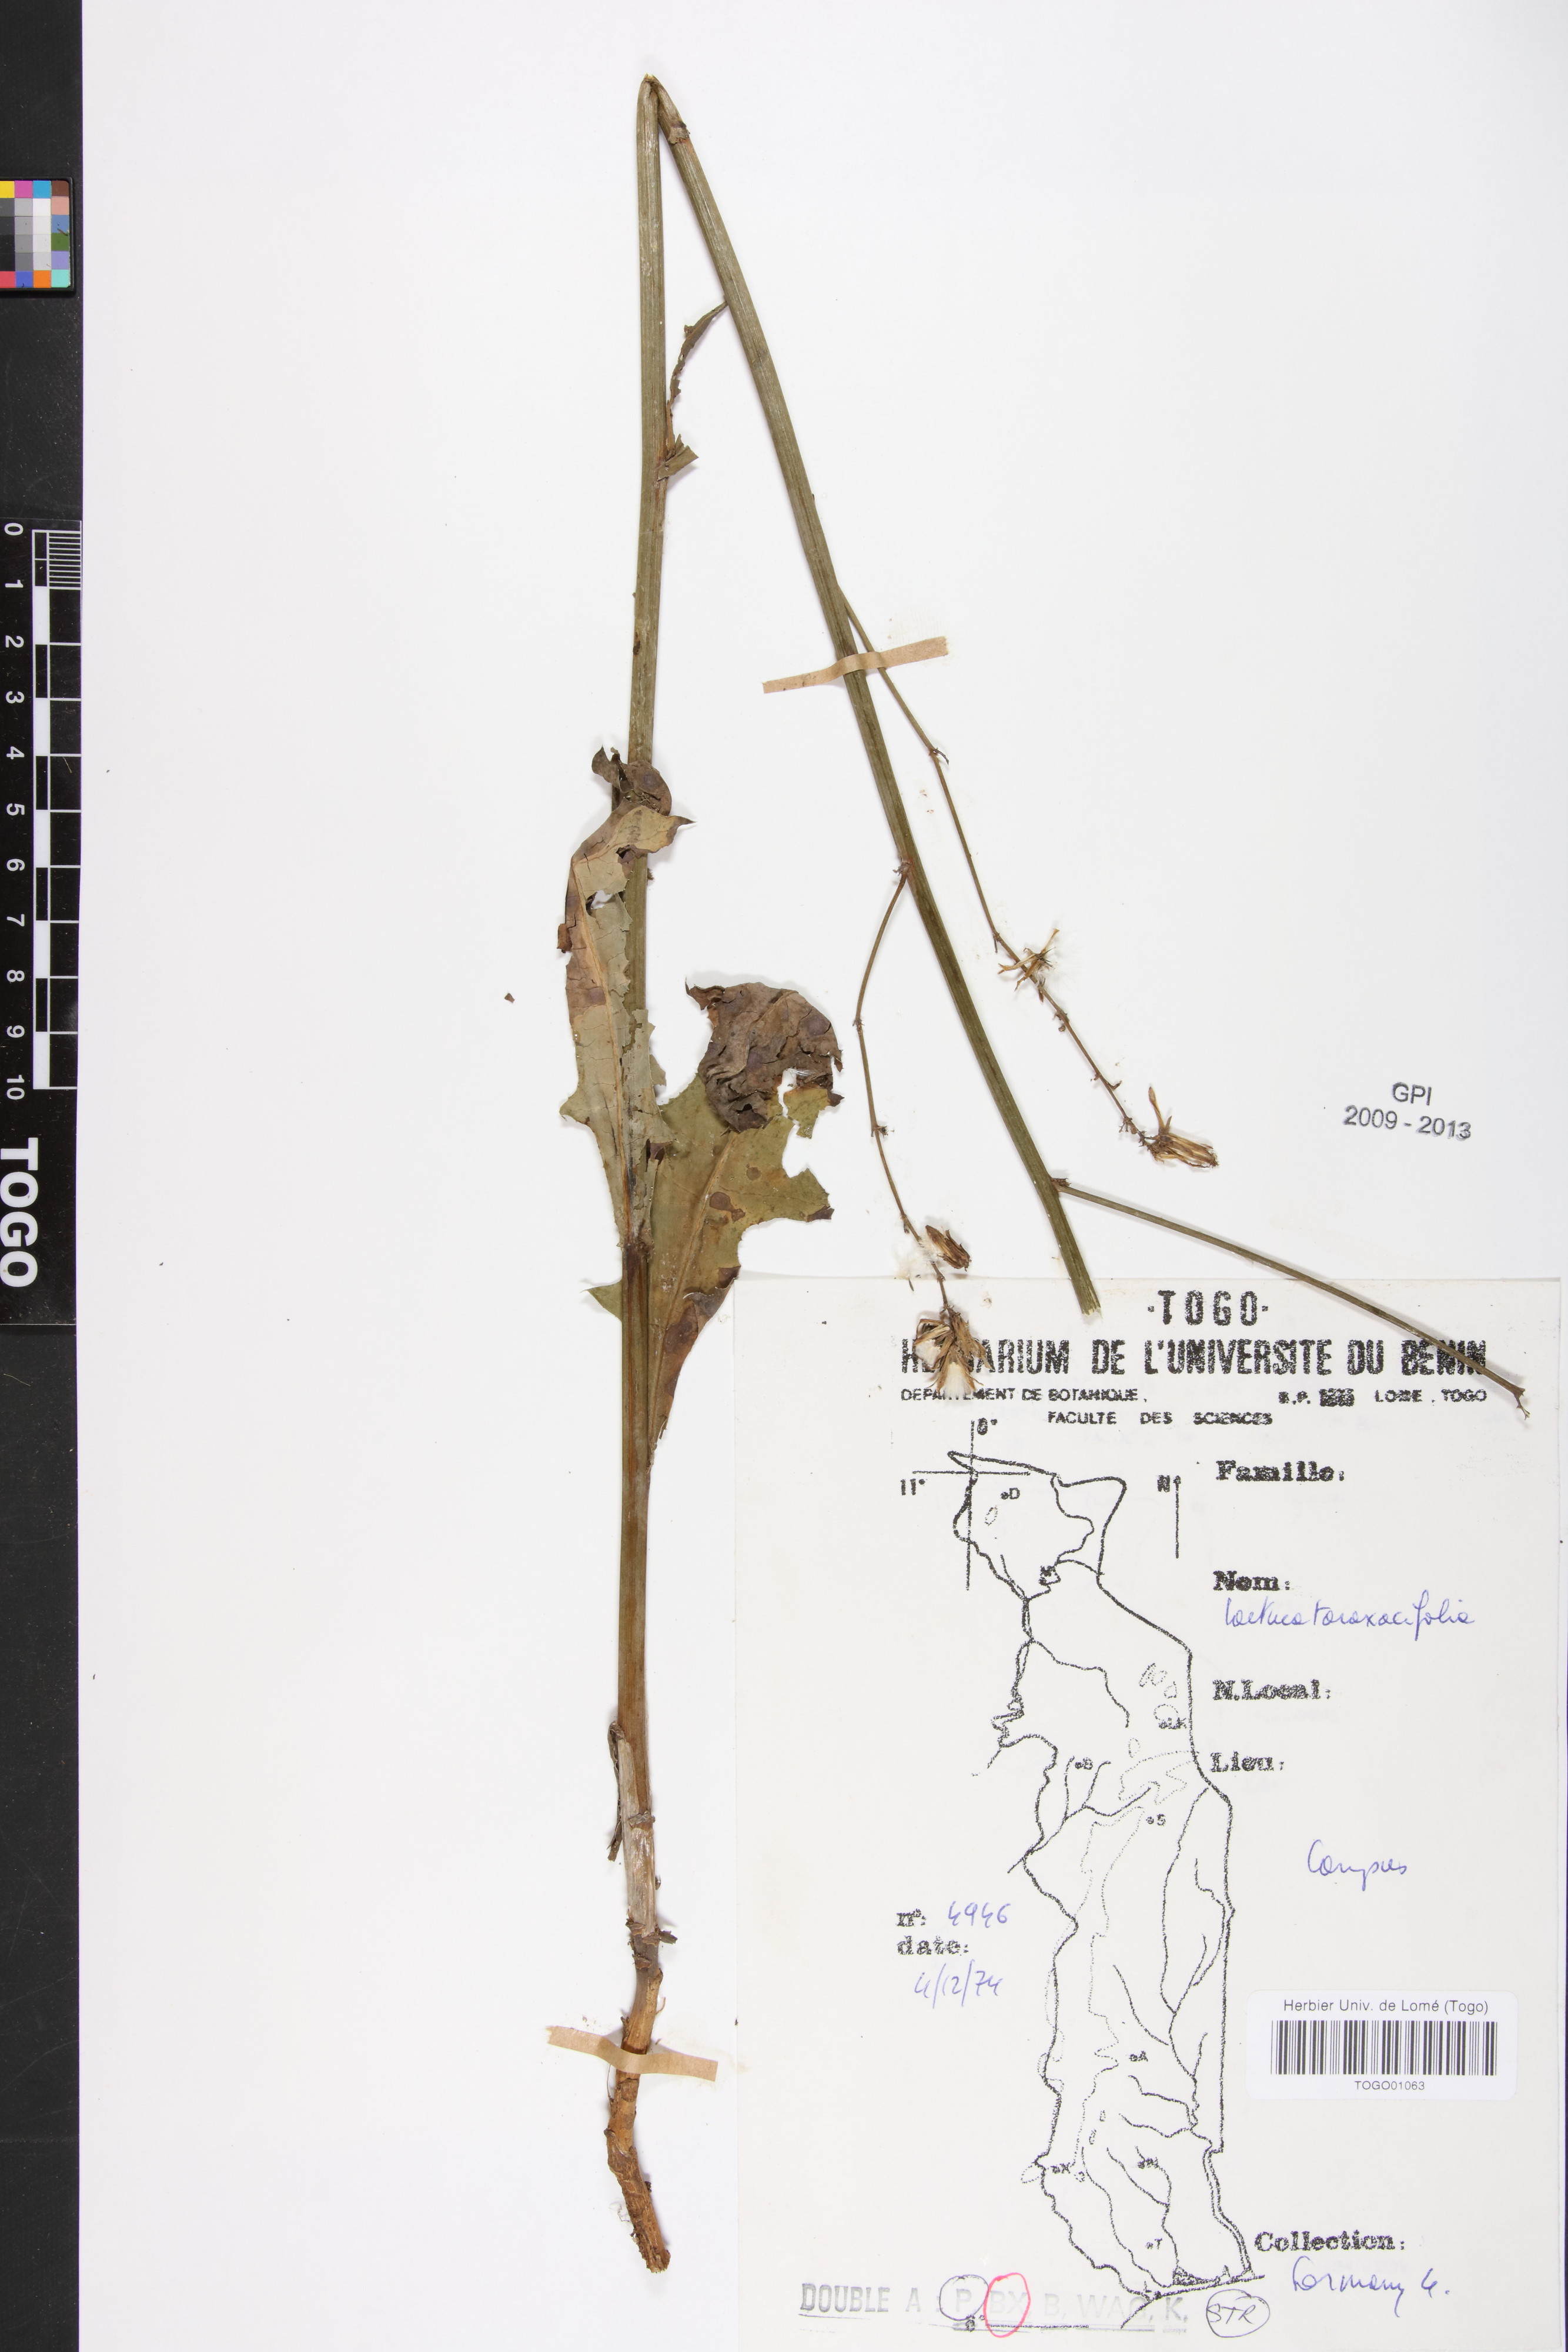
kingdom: Plantae
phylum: Tracheophyta
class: Magnoliopsida
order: Asterales
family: Asteraceae
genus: Launaea
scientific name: Launaea taraxacifolia
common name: African-lettuce
